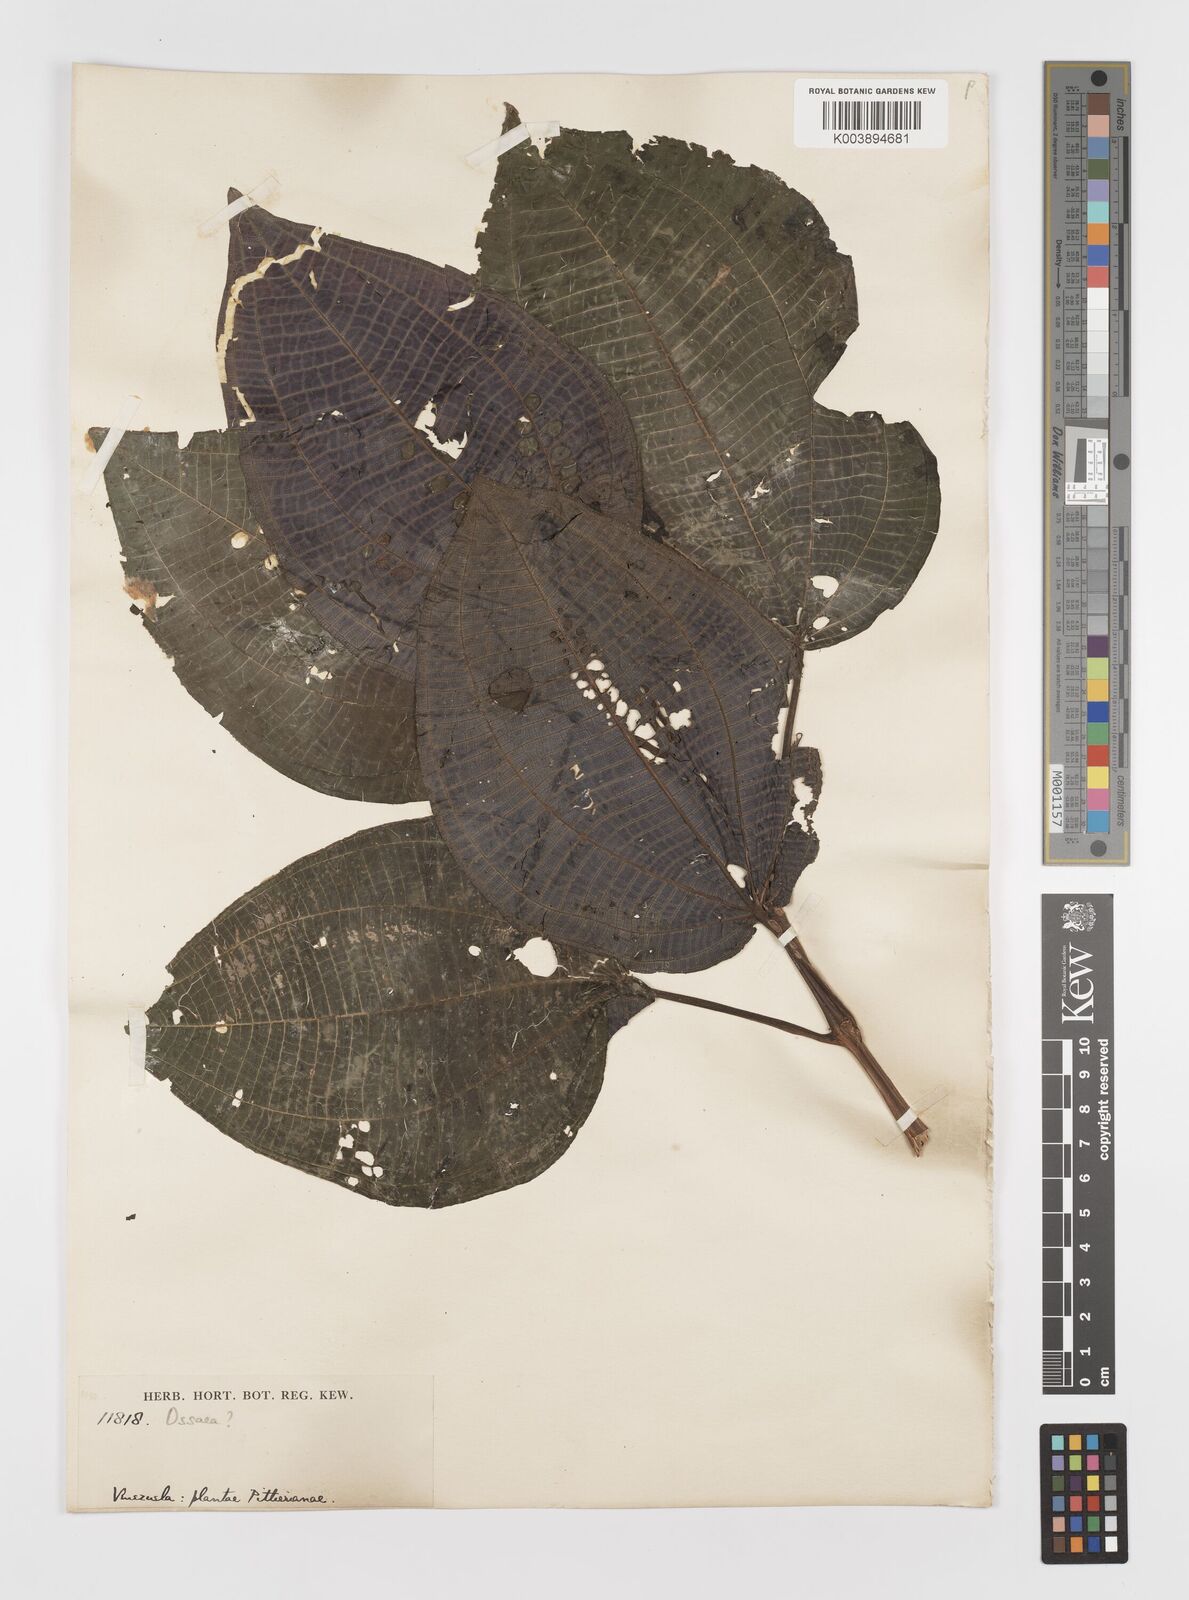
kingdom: Plantae
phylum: Tracheophyta
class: Magnoliopsida
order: Myrtales
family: Melastomataceae
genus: Ossaea
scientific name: Ossaea
